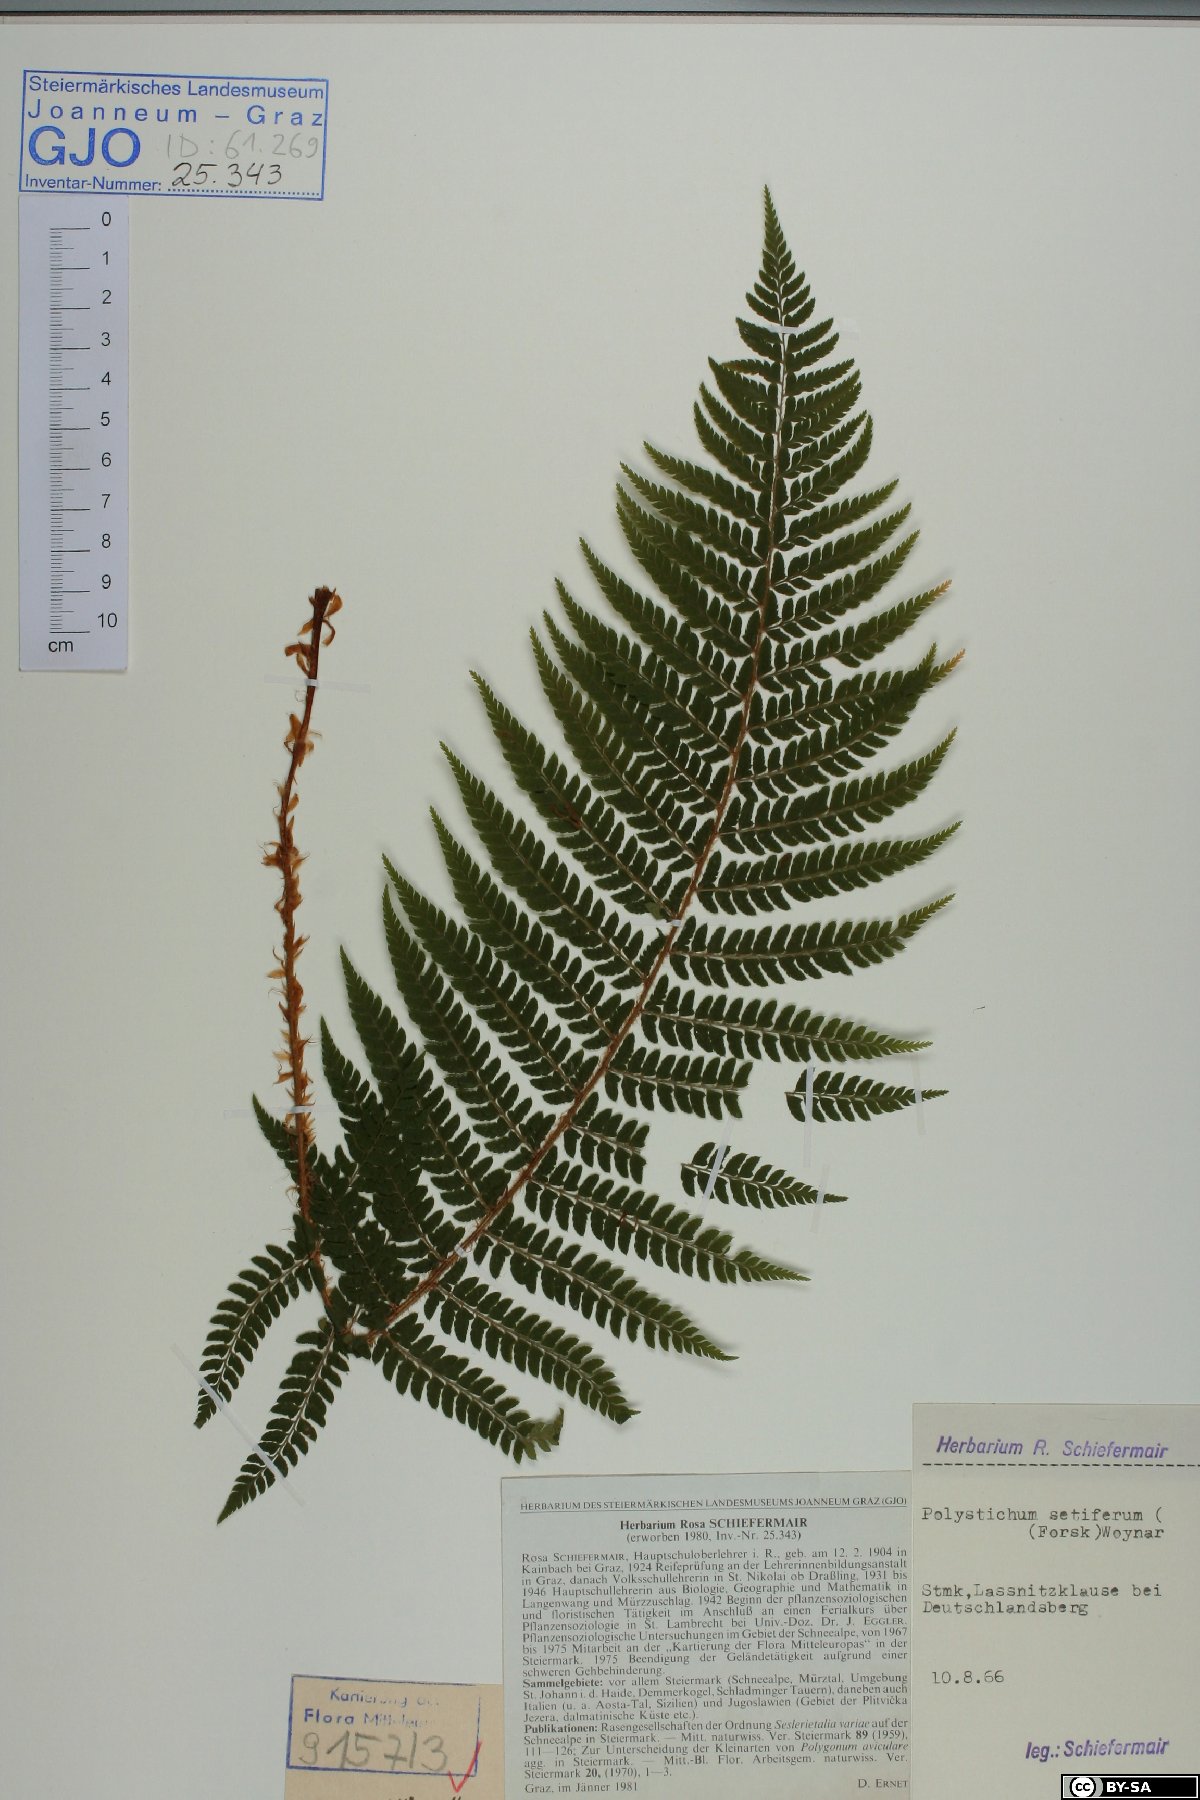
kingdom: Plantae
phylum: Tracheophyta
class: Polypodiopsida
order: Polypodiales
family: Dryopteridaceae
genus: Polystichum
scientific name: Polystichum setiferum
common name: Soft shield-fern
